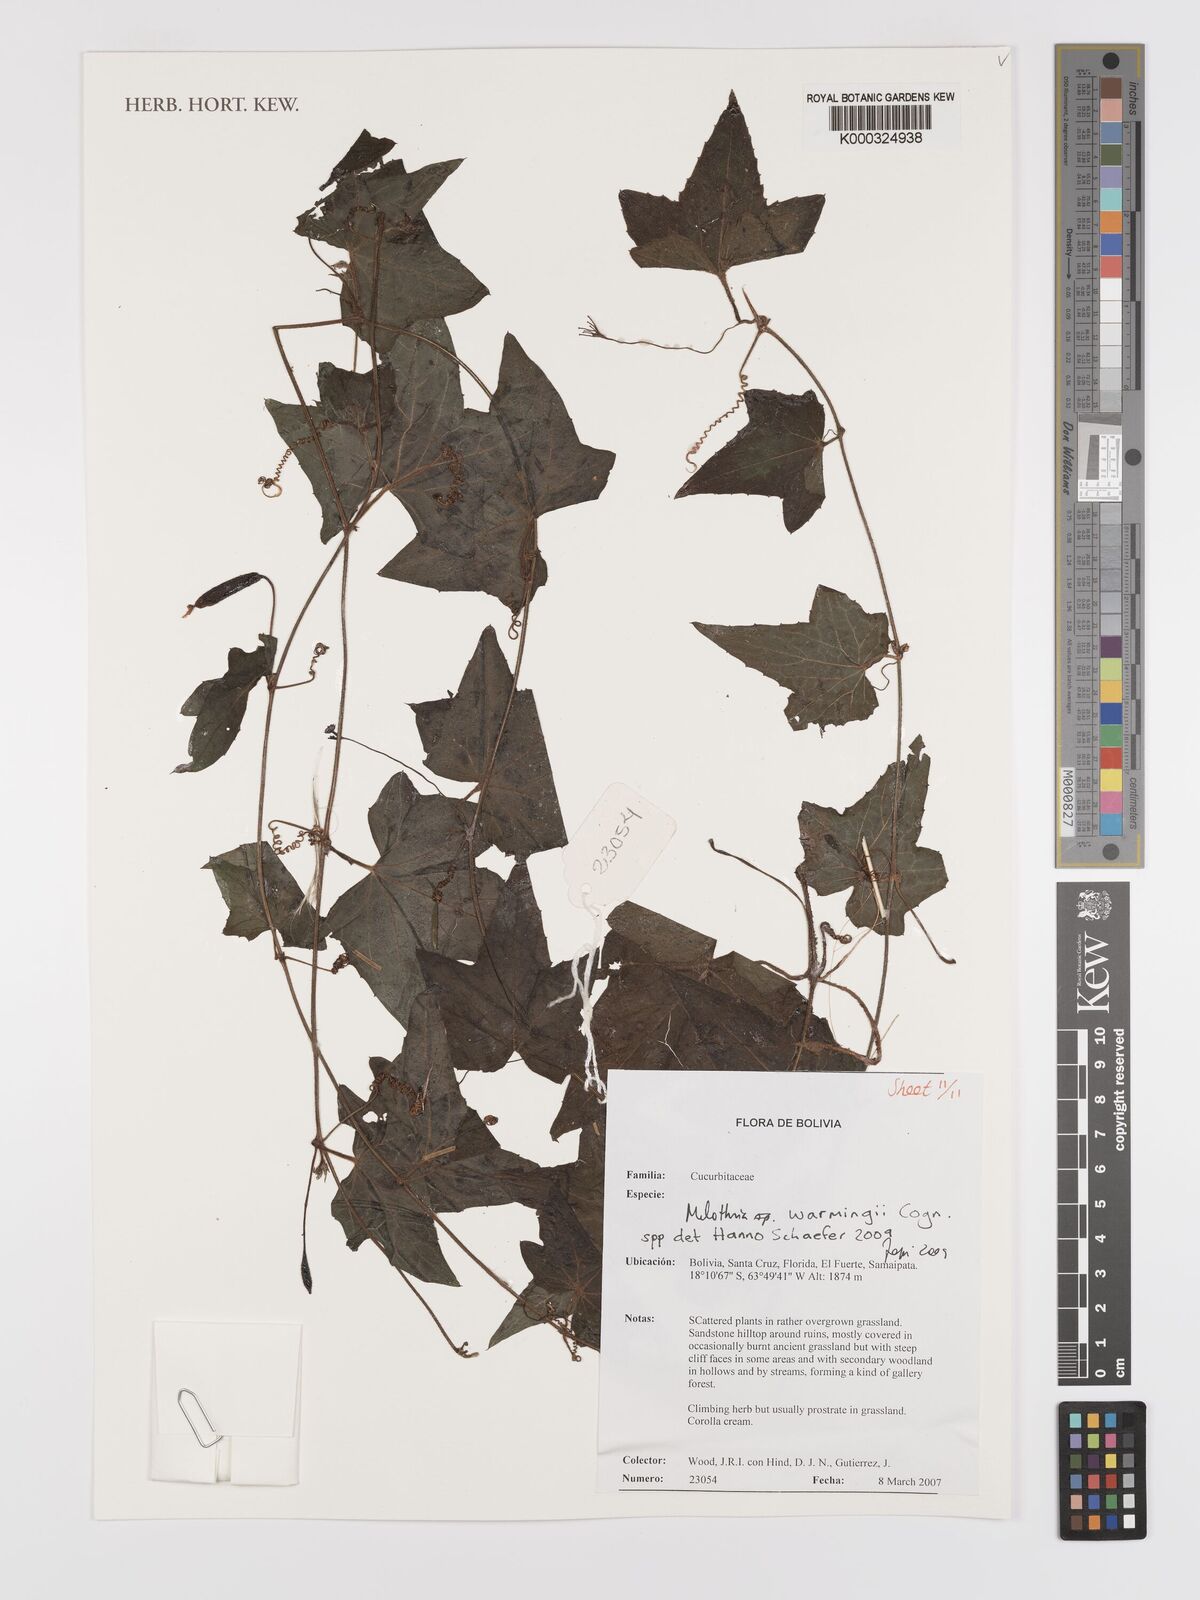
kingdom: Plantae
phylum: Tracheophyta
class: Magnoliopsida
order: Cucurbitales
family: Cucurbitaceae
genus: Melothria
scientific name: Melothria
